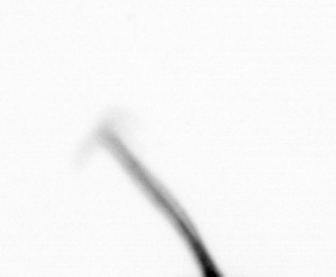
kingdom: Chromista
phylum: Ochrophyta
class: Bacillariophyceae
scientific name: Bacillariophyceae
